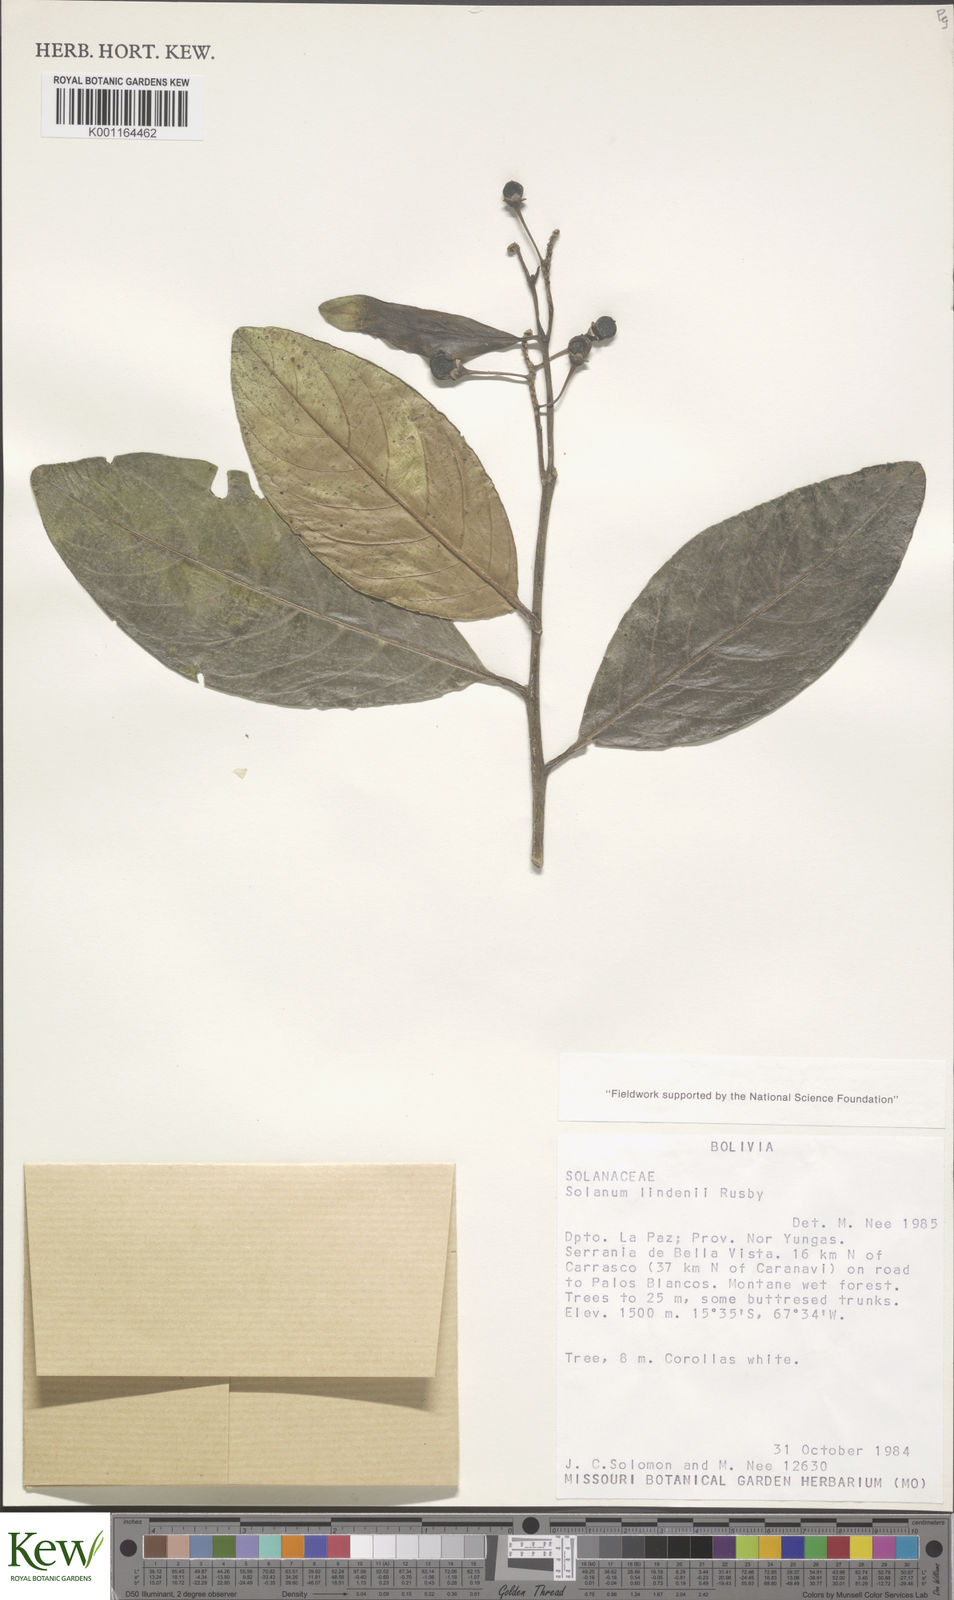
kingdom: Plantae
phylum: Tracheophyta
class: Magnoliopsida
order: Solanales
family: Solanaceae
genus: Solanum
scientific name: Solanum lindenii
